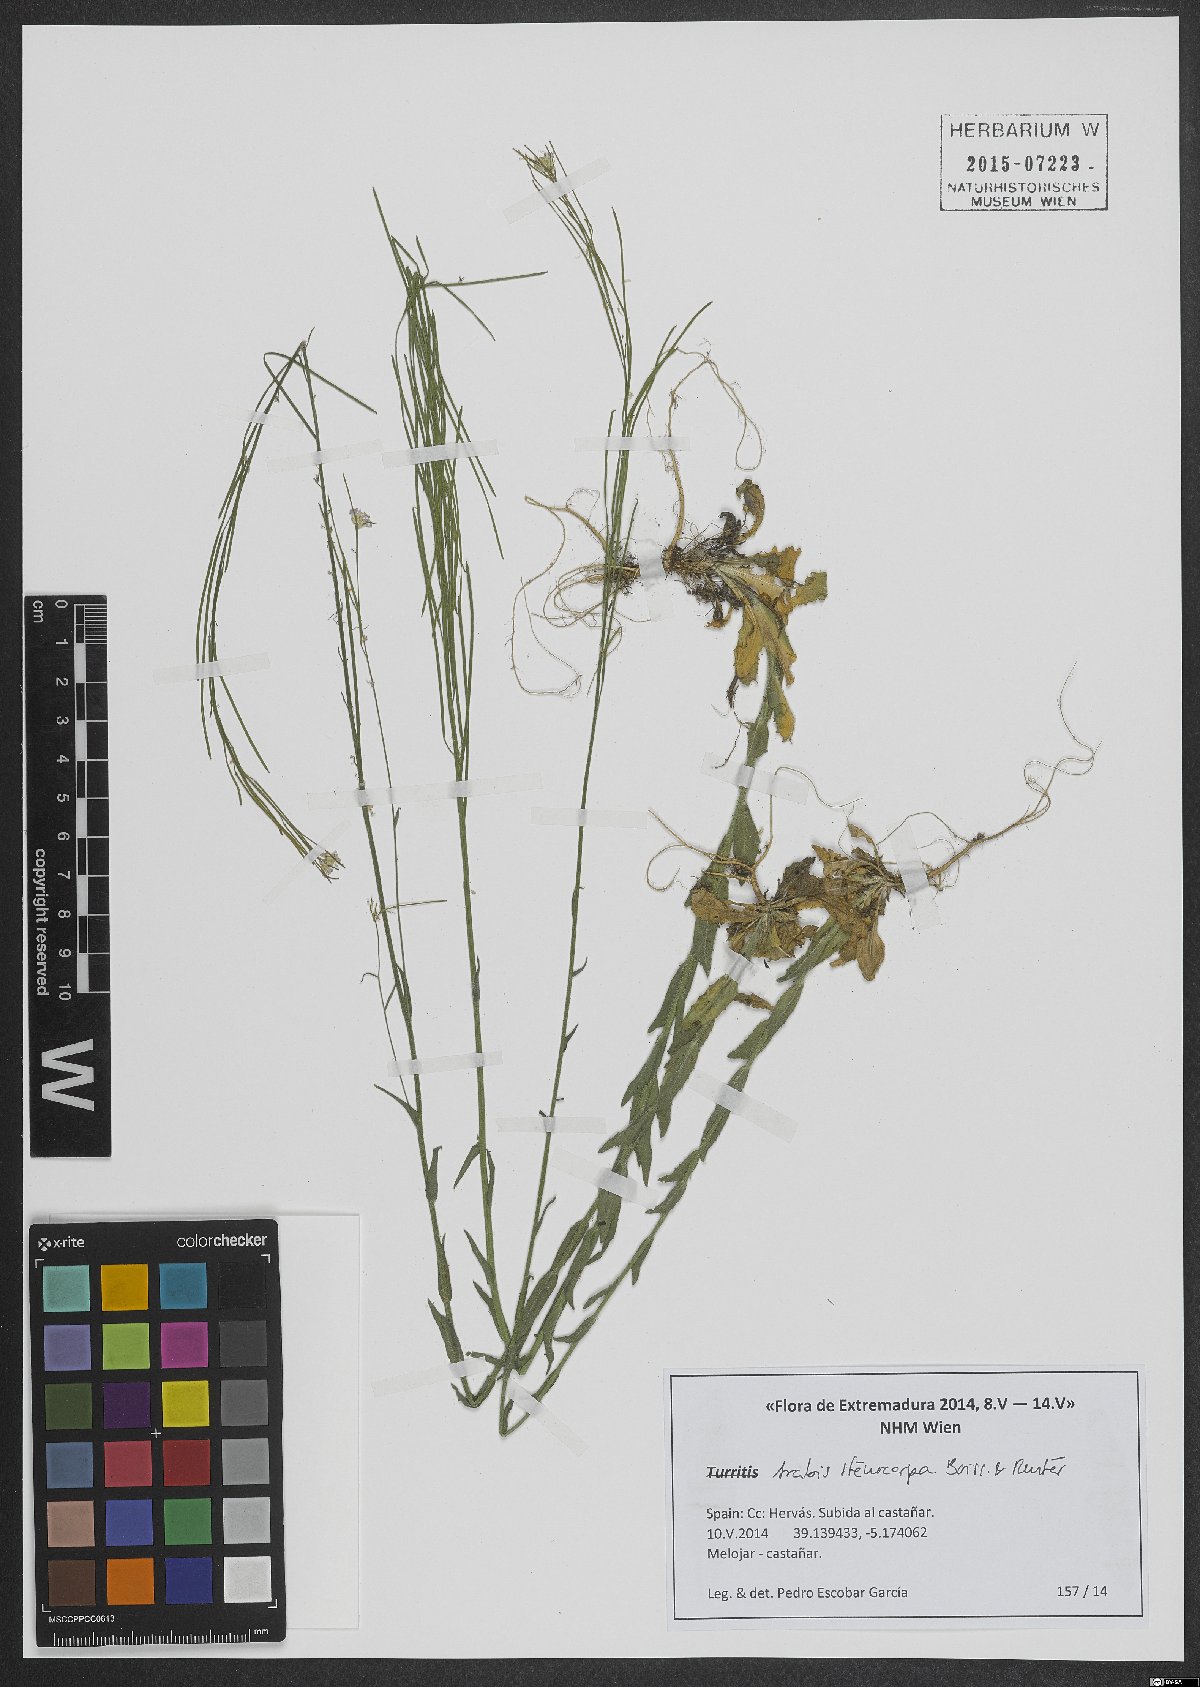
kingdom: Plantae
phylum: Tracheophyta
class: Magnoliopsida
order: Brassicales
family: Brassicaceae
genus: Arabis
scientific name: Arabis stenocarpa
